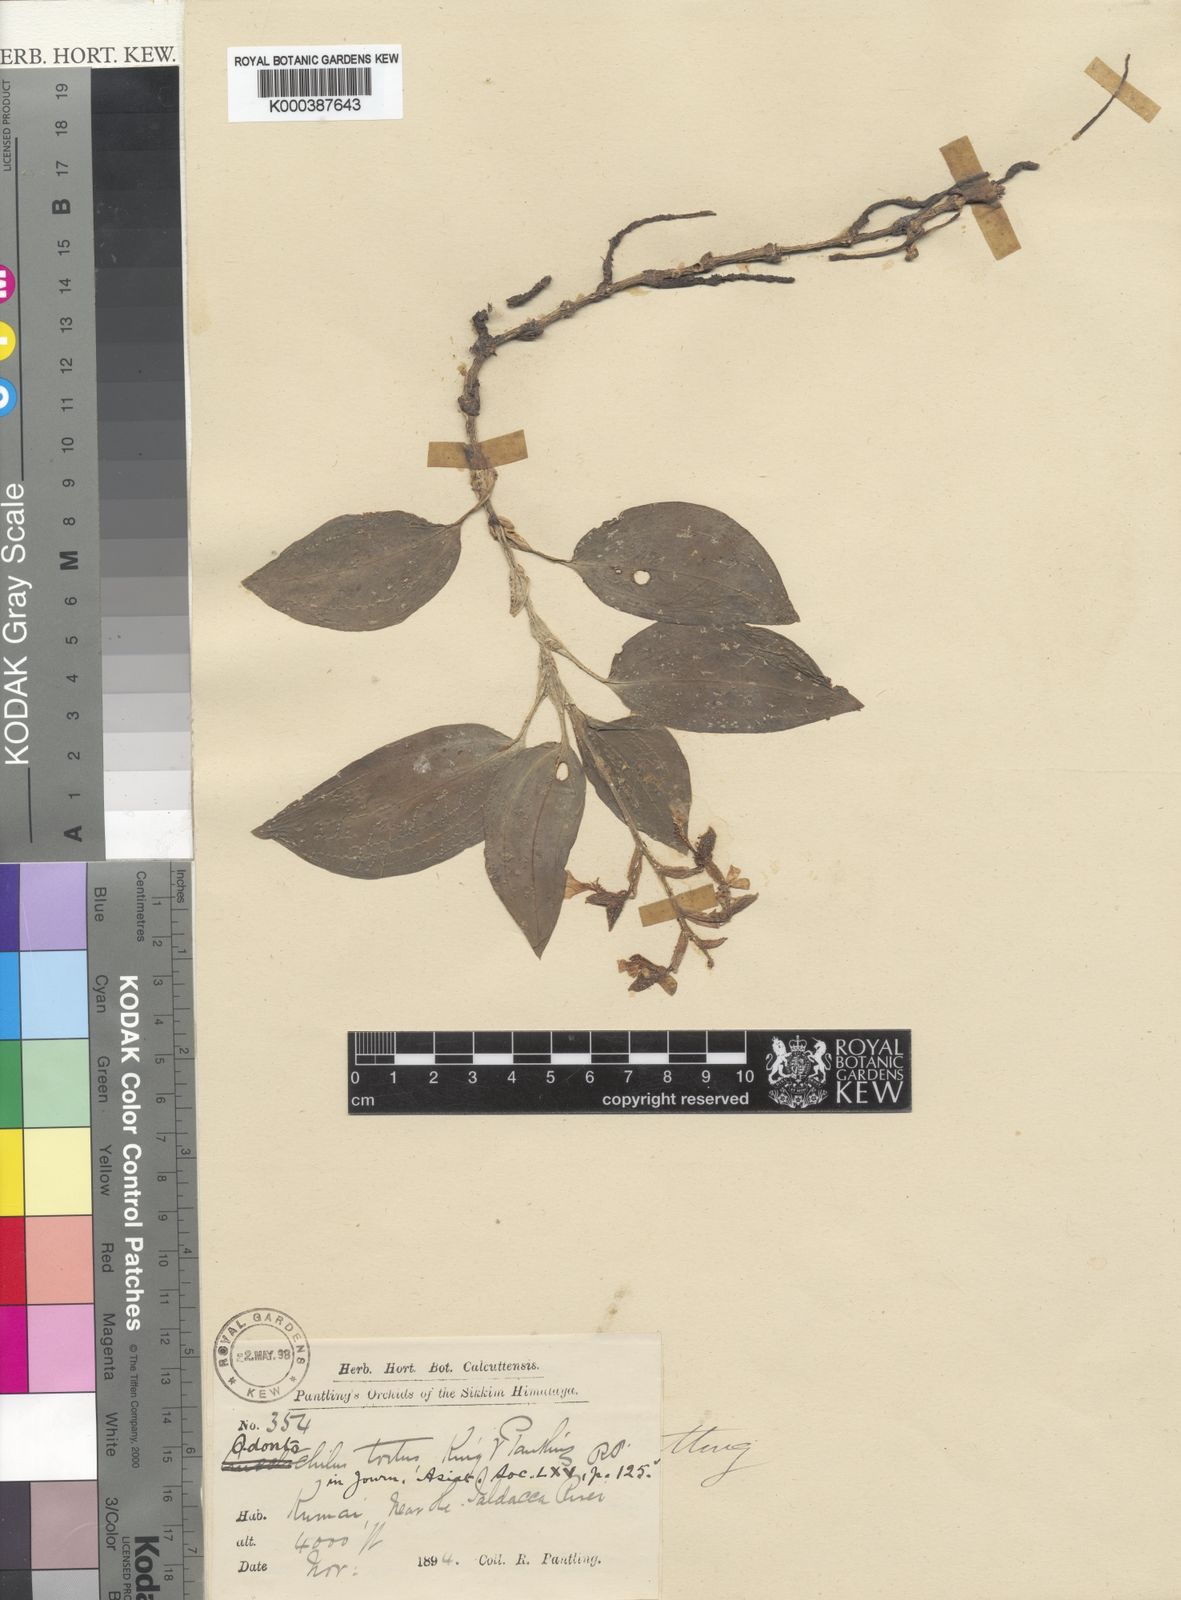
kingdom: Plantae
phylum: Tracheophyta
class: Liliopsida
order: Asparagales
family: Orchidaceae
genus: Odontochilus
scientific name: Odontochilus tortus
